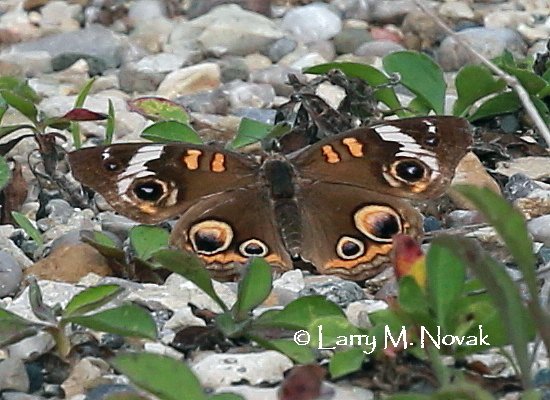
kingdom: Animalia
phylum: Arthropoda
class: Insecta
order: Lepidoptera
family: Nymphalidae
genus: Junonia
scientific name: Junonia coenia
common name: Common Buckeye
